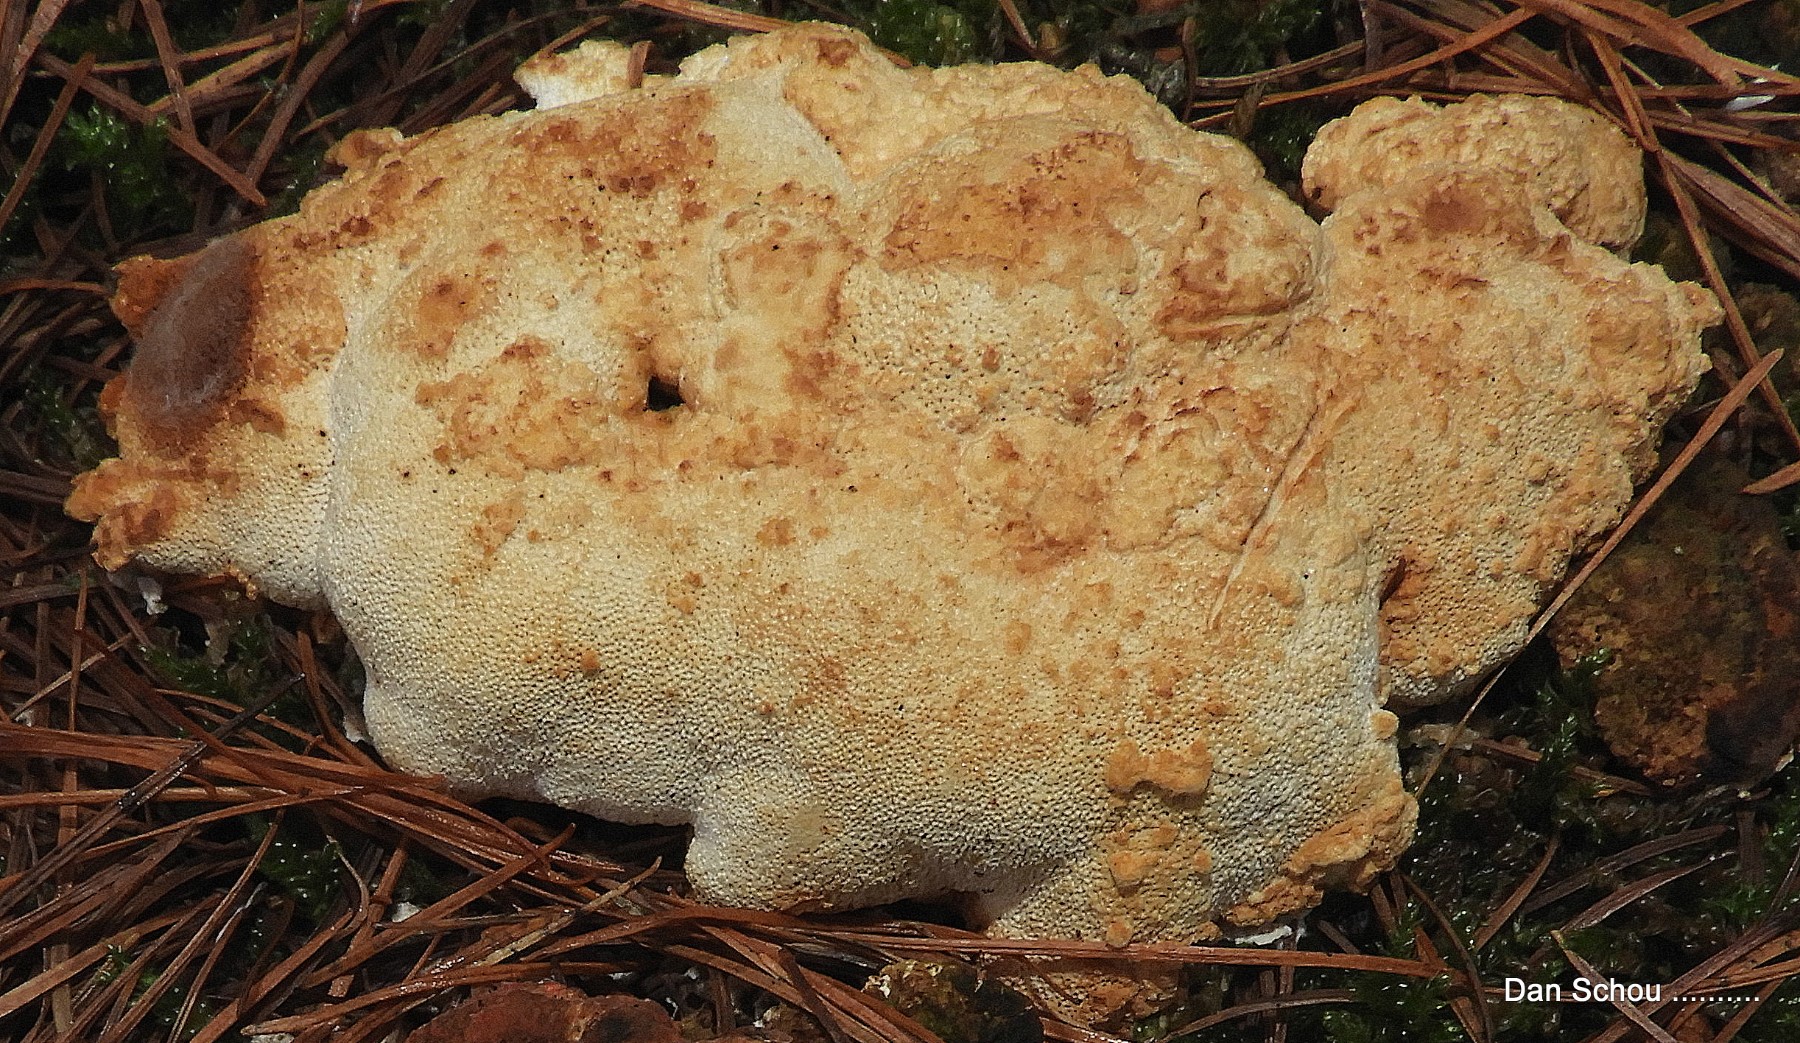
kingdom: Fungi
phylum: Basidiomycota
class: Agaricomycetes
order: Polyporales
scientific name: Polyporales
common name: poresvampordenen
